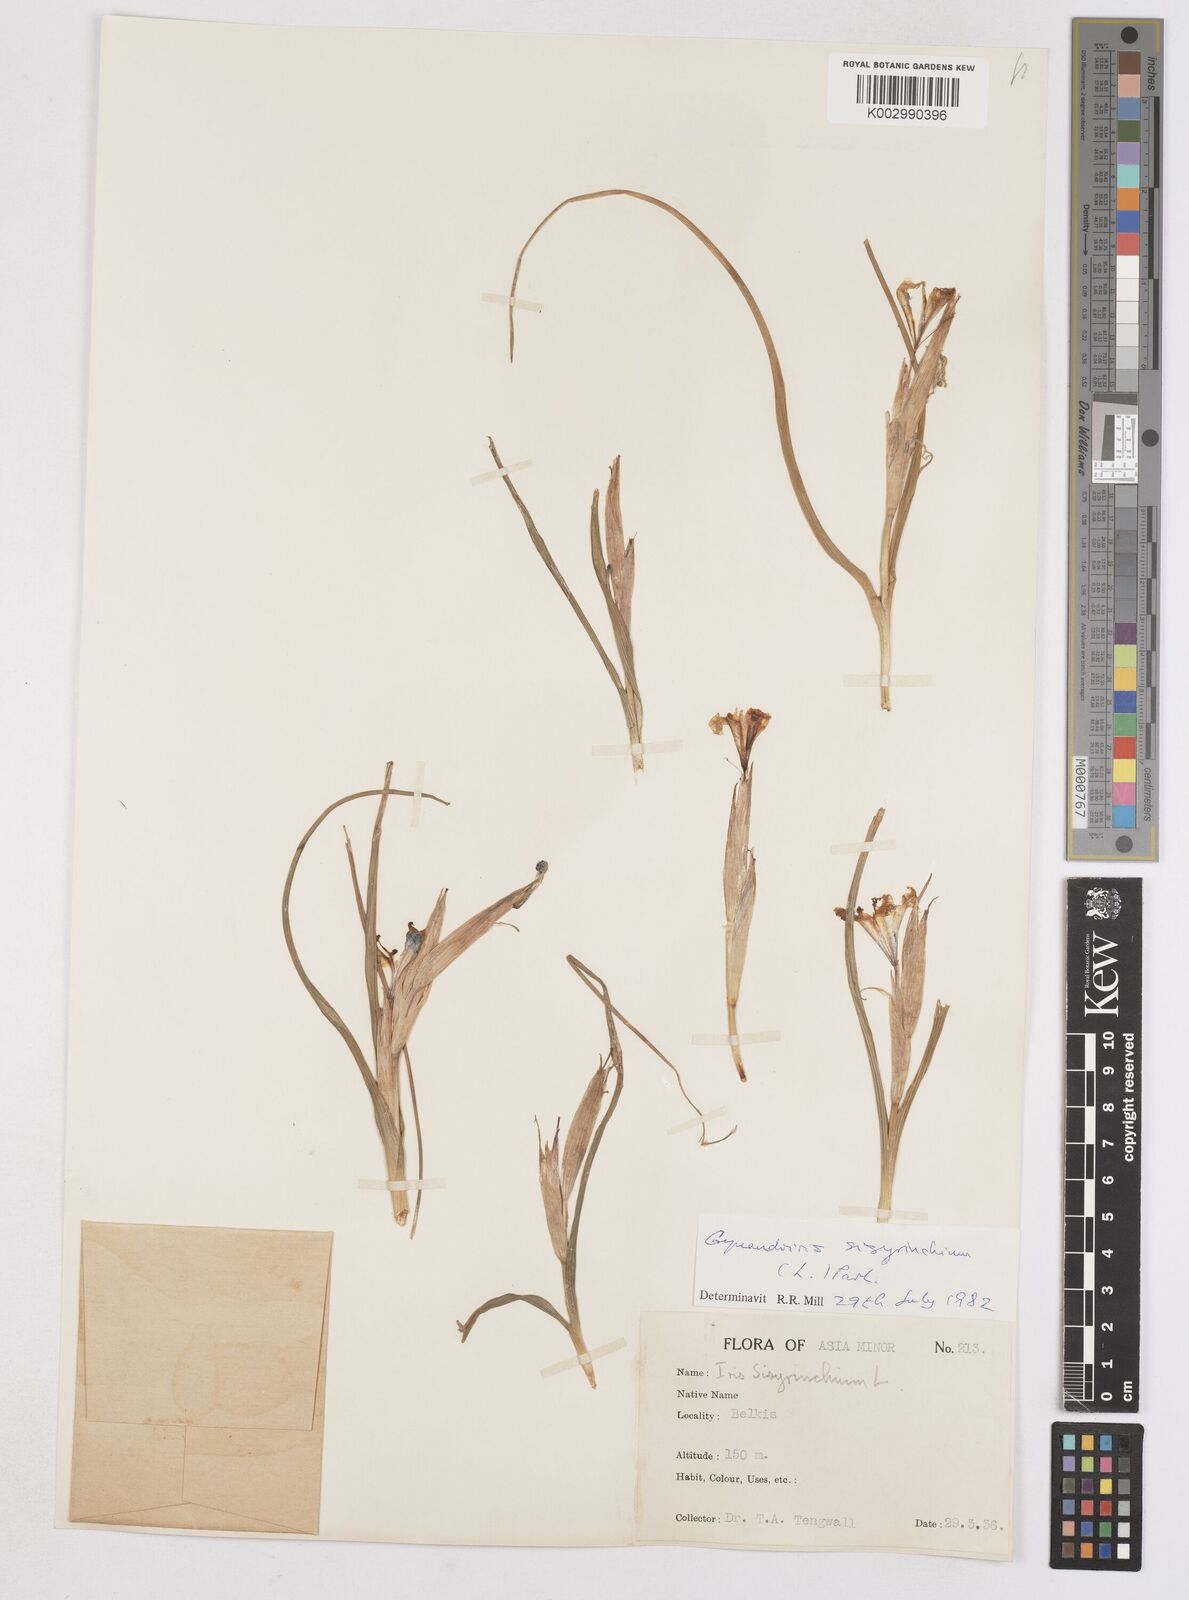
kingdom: Plantae
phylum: Tracheophyta
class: Liliopsida
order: Asparagales
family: Iridaceae
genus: Moraea
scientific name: Moraea sisyrinchium
